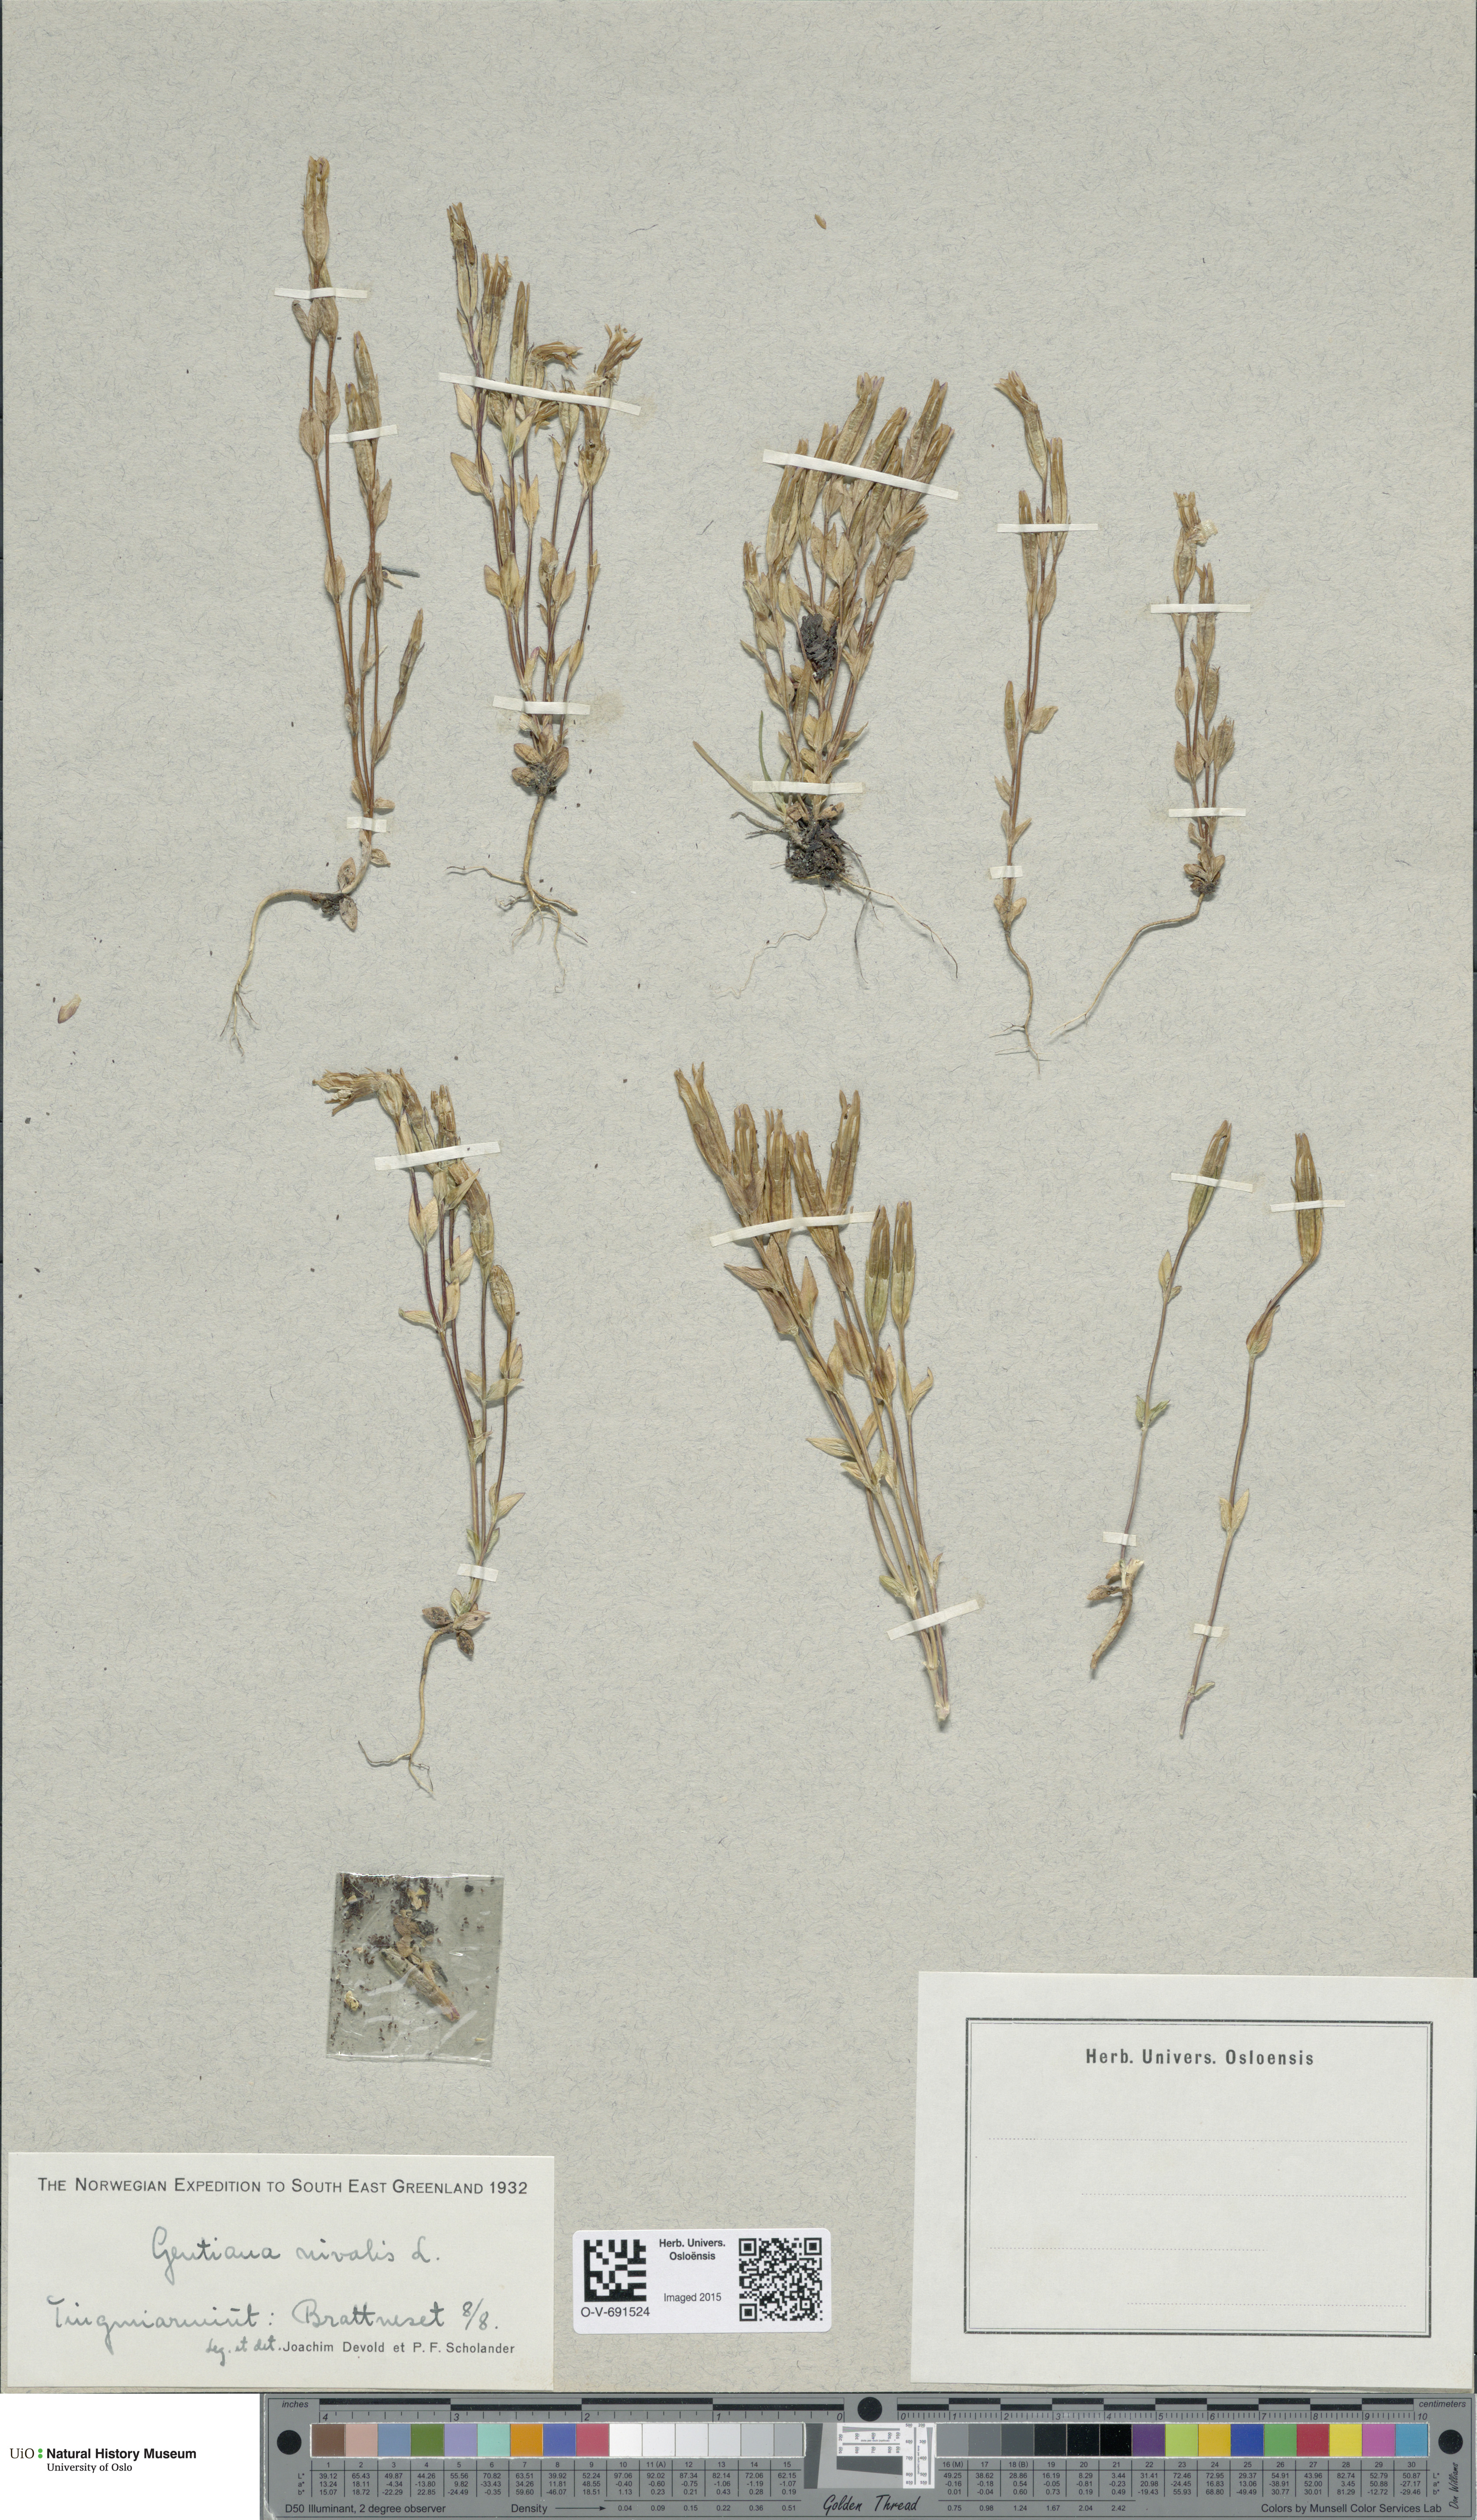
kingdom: Plantae
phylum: Tracheophyta
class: Magnoliopsida
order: Gentianales
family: Gentianaceae
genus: Gentiana
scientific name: Gentiana nivalis
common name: Alpine gentian
